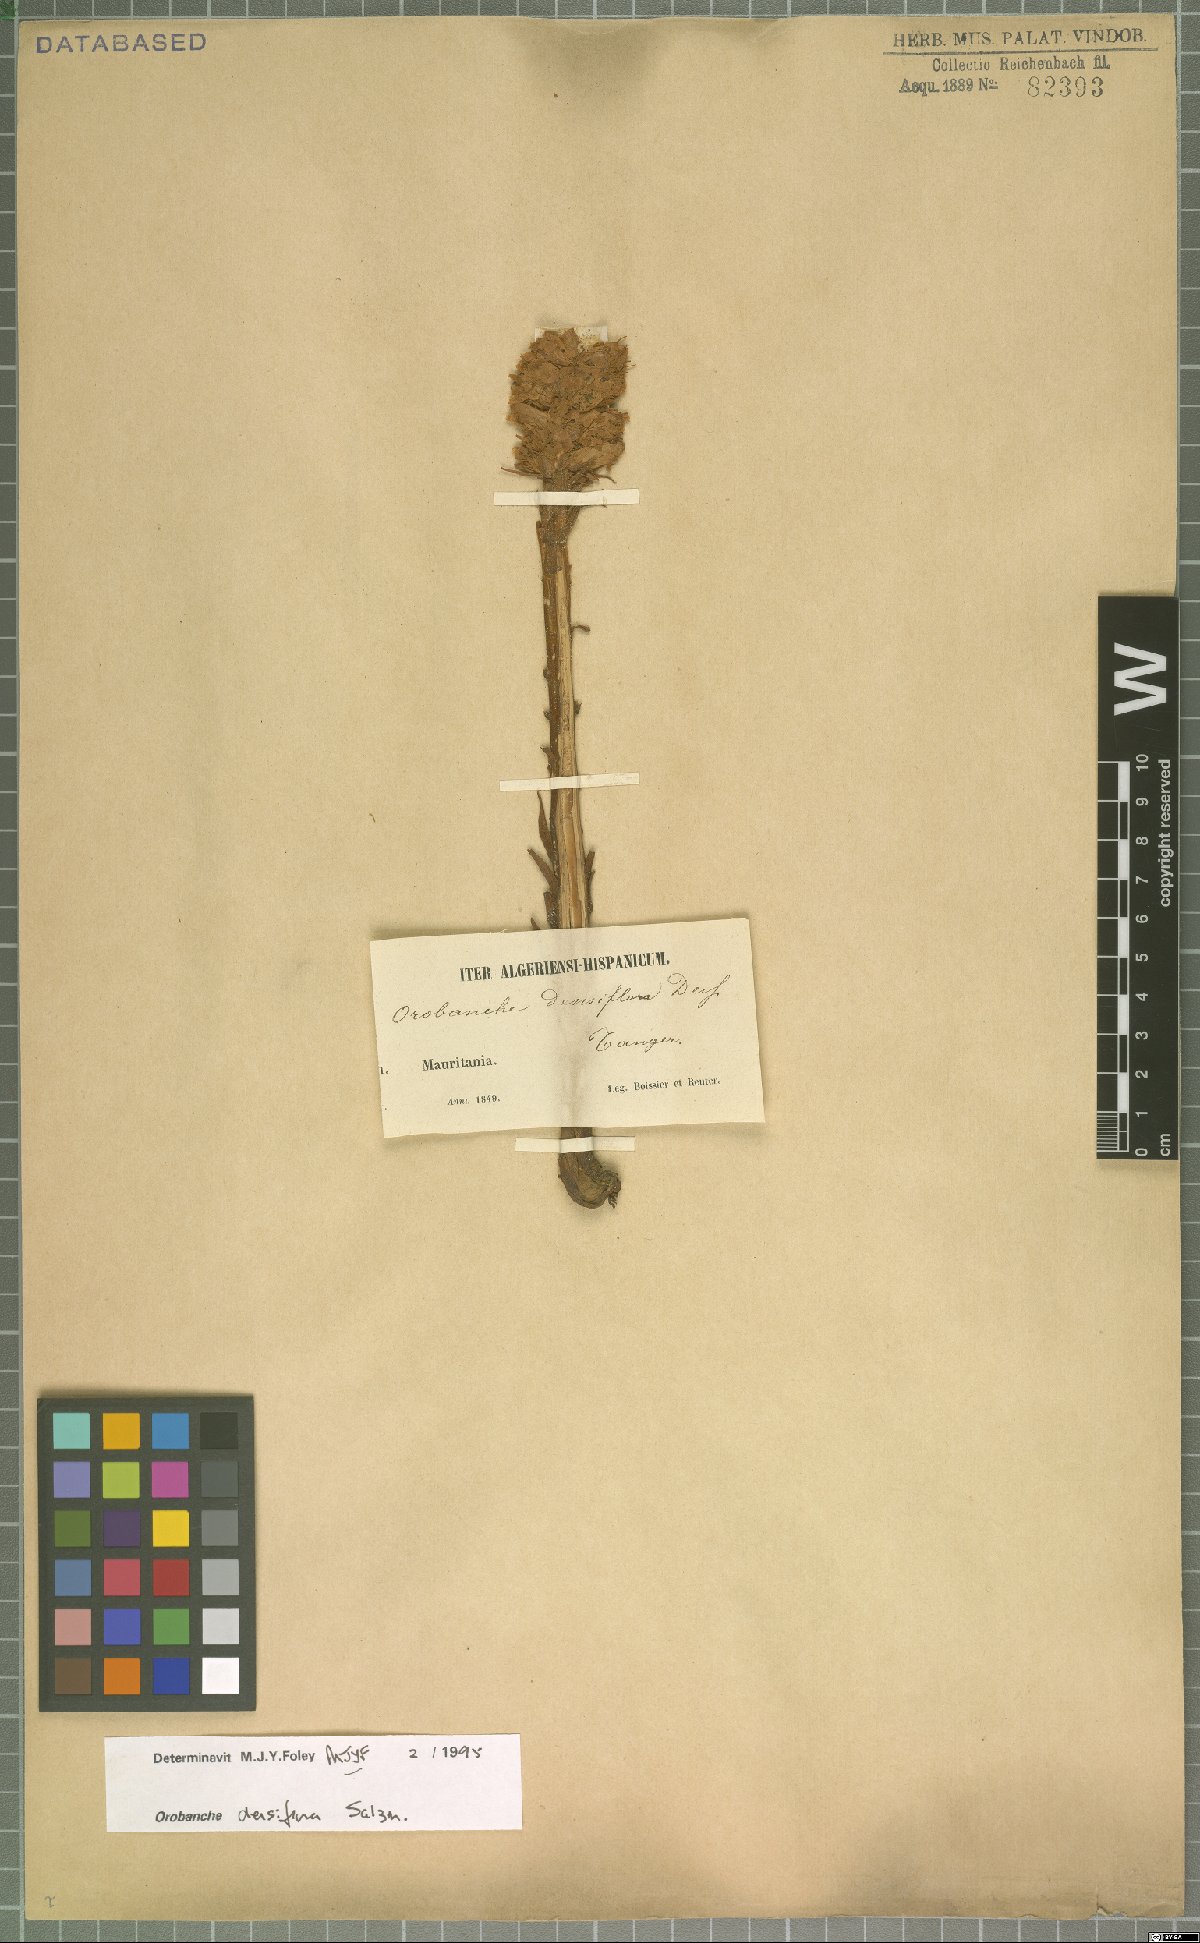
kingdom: Plantae
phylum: Tracheophyta
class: Magnoliopsida
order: Lamiales
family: Orobanchaceae
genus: Orobanche
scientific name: Orobanche densiflora
